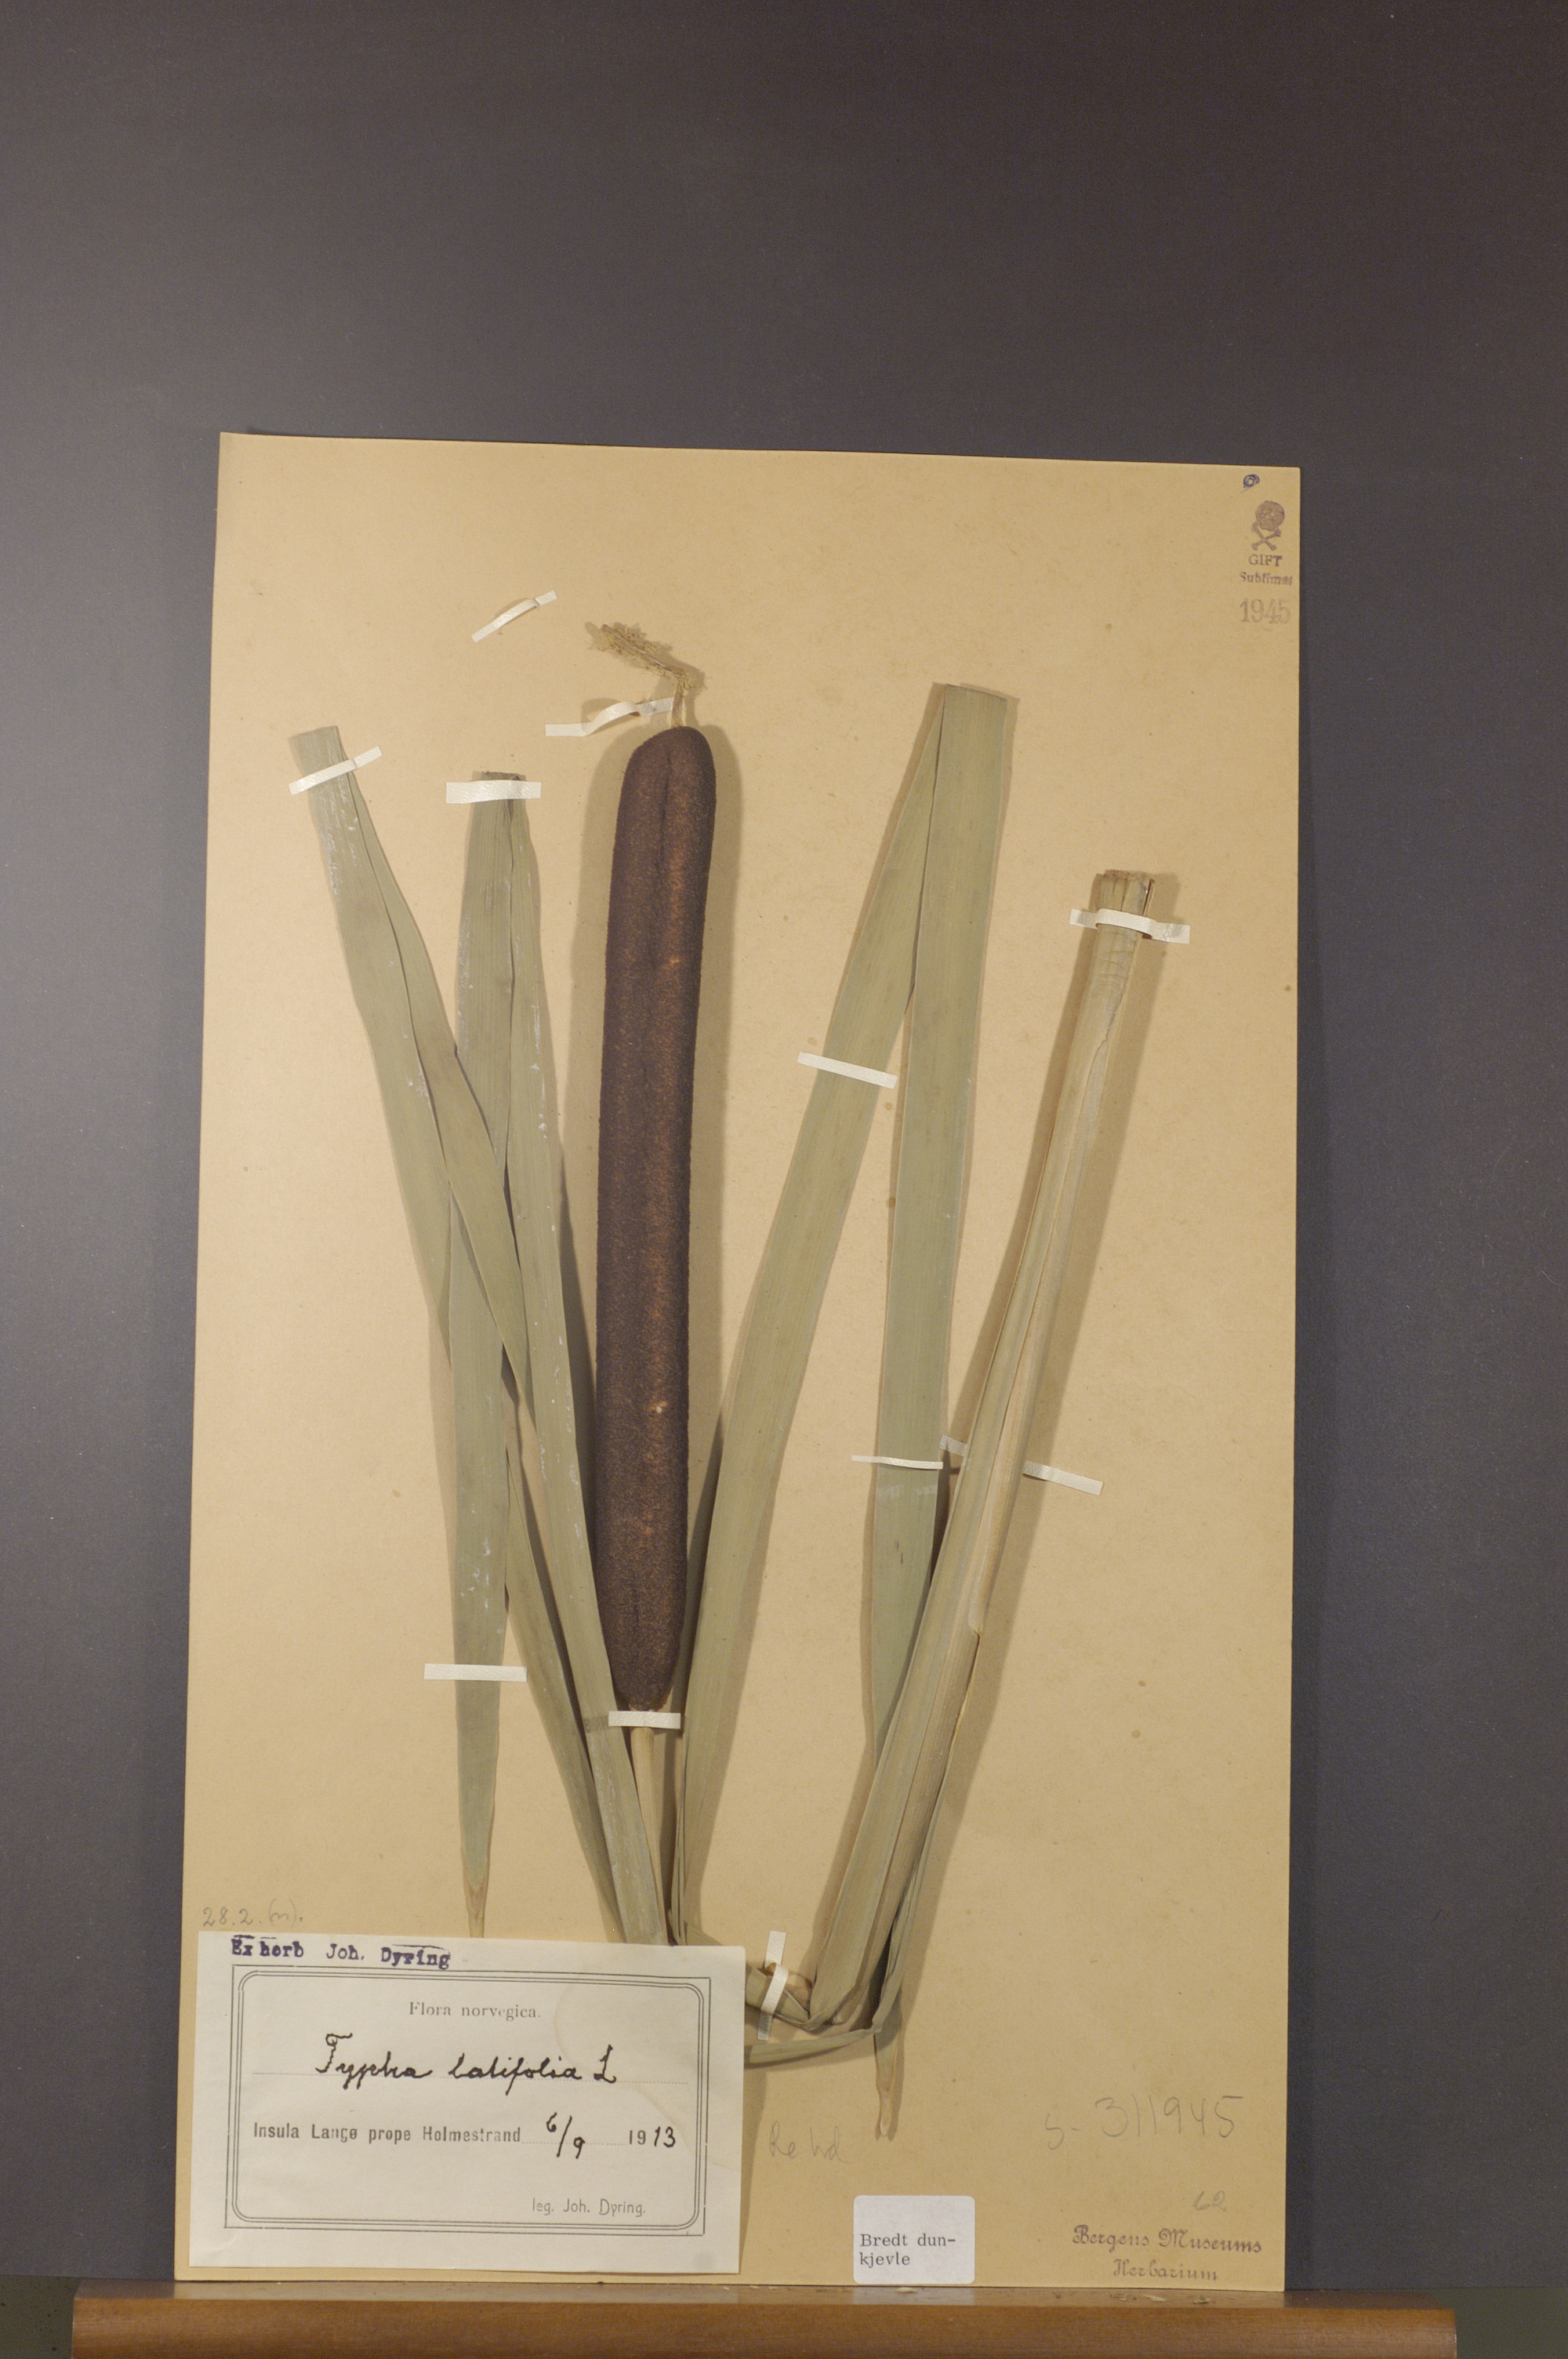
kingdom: Plantae
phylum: Tracheophyta
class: Liliopsida
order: Poales
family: Typhaceae
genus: Typha
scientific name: Typha latifolia
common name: Broadleaf cattail
